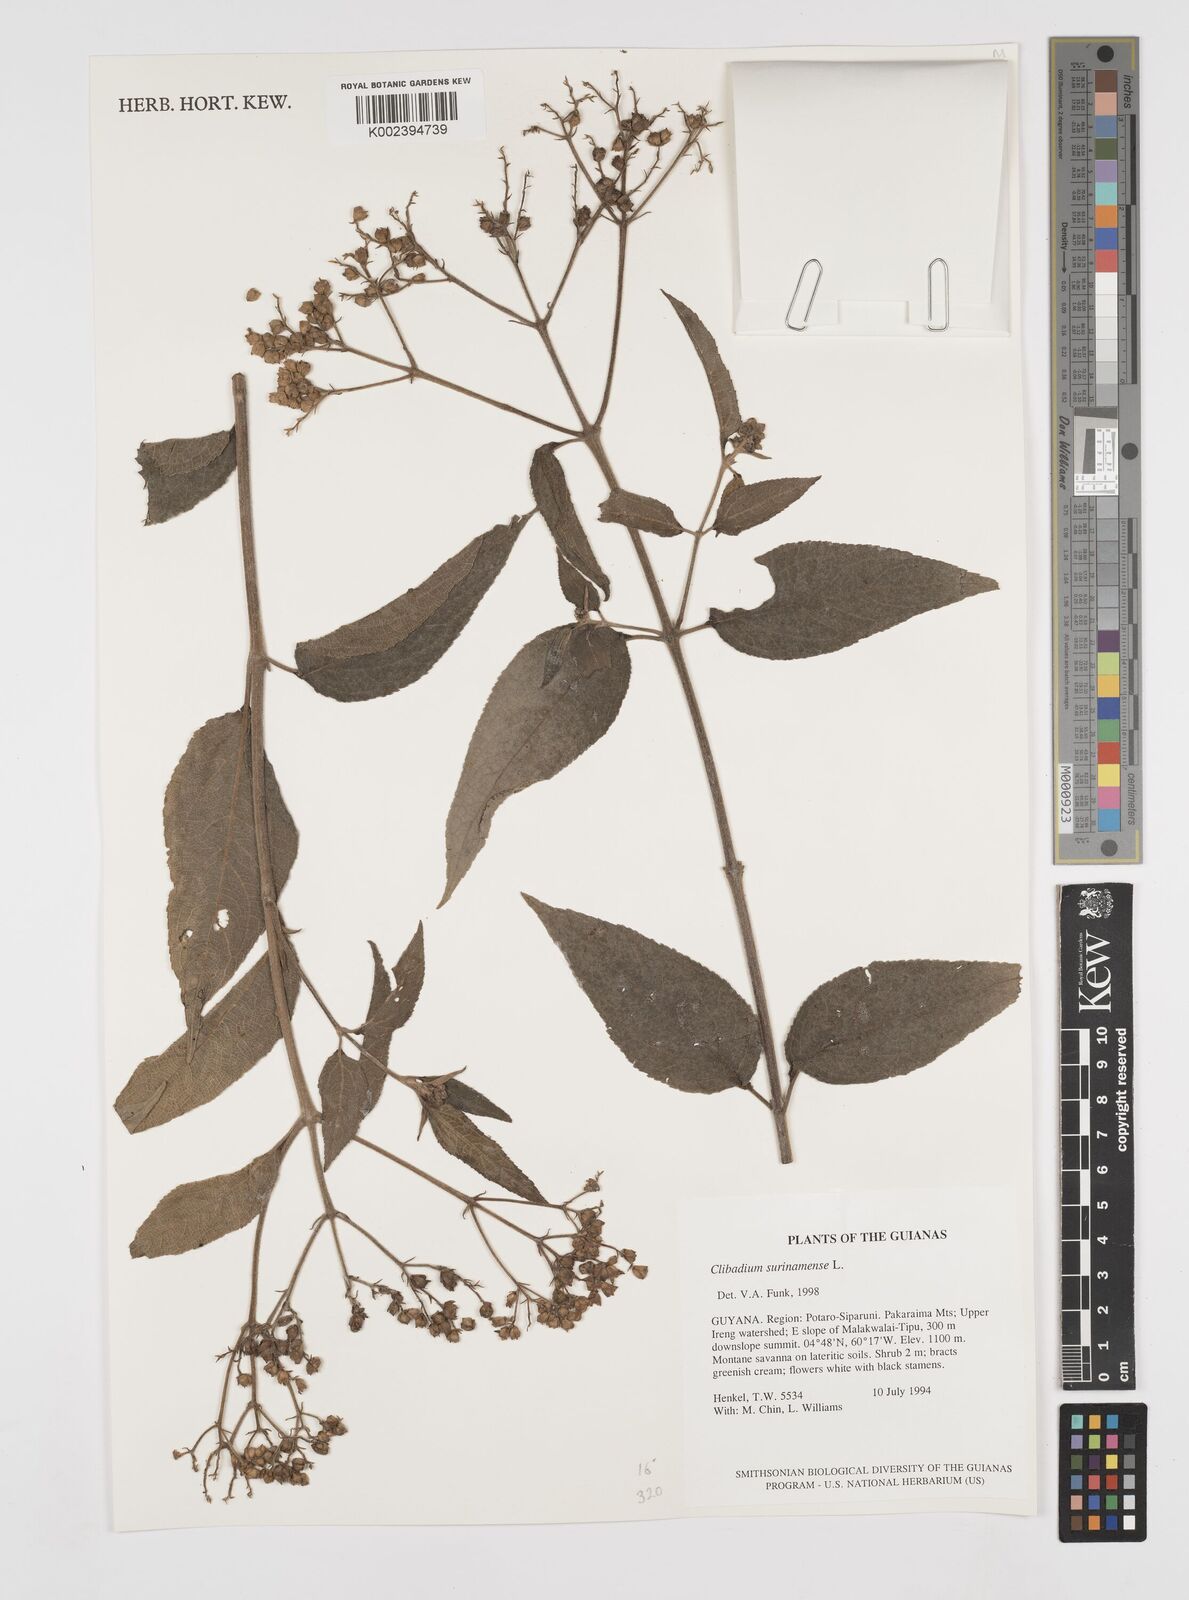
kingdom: Plantae
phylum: Tracheophyta
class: Magnoliopsida
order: Asterales
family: Asteraceae
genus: Clibadium
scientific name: Clibadium surinamense
